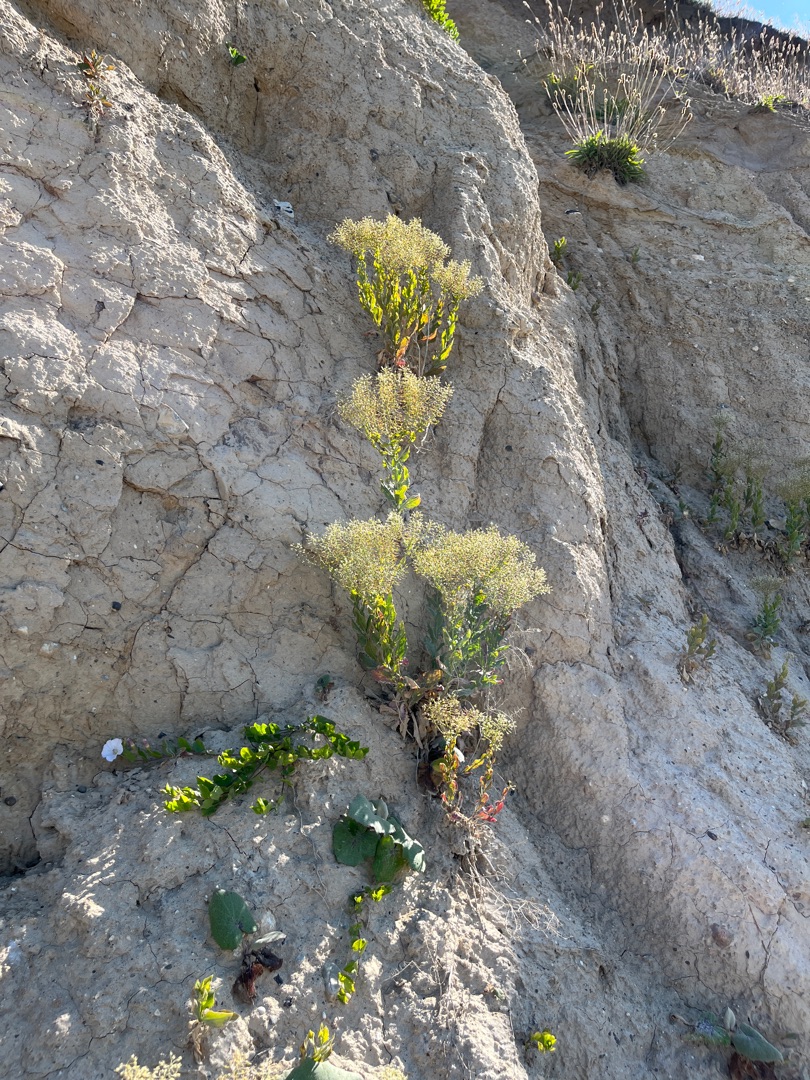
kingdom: Plantae
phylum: Tracheophyta
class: Magnoliopsida
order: Brassicales
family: Brassicaceae
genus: Lepidium
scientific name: Lepidium draba
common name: Hjerte-karse
